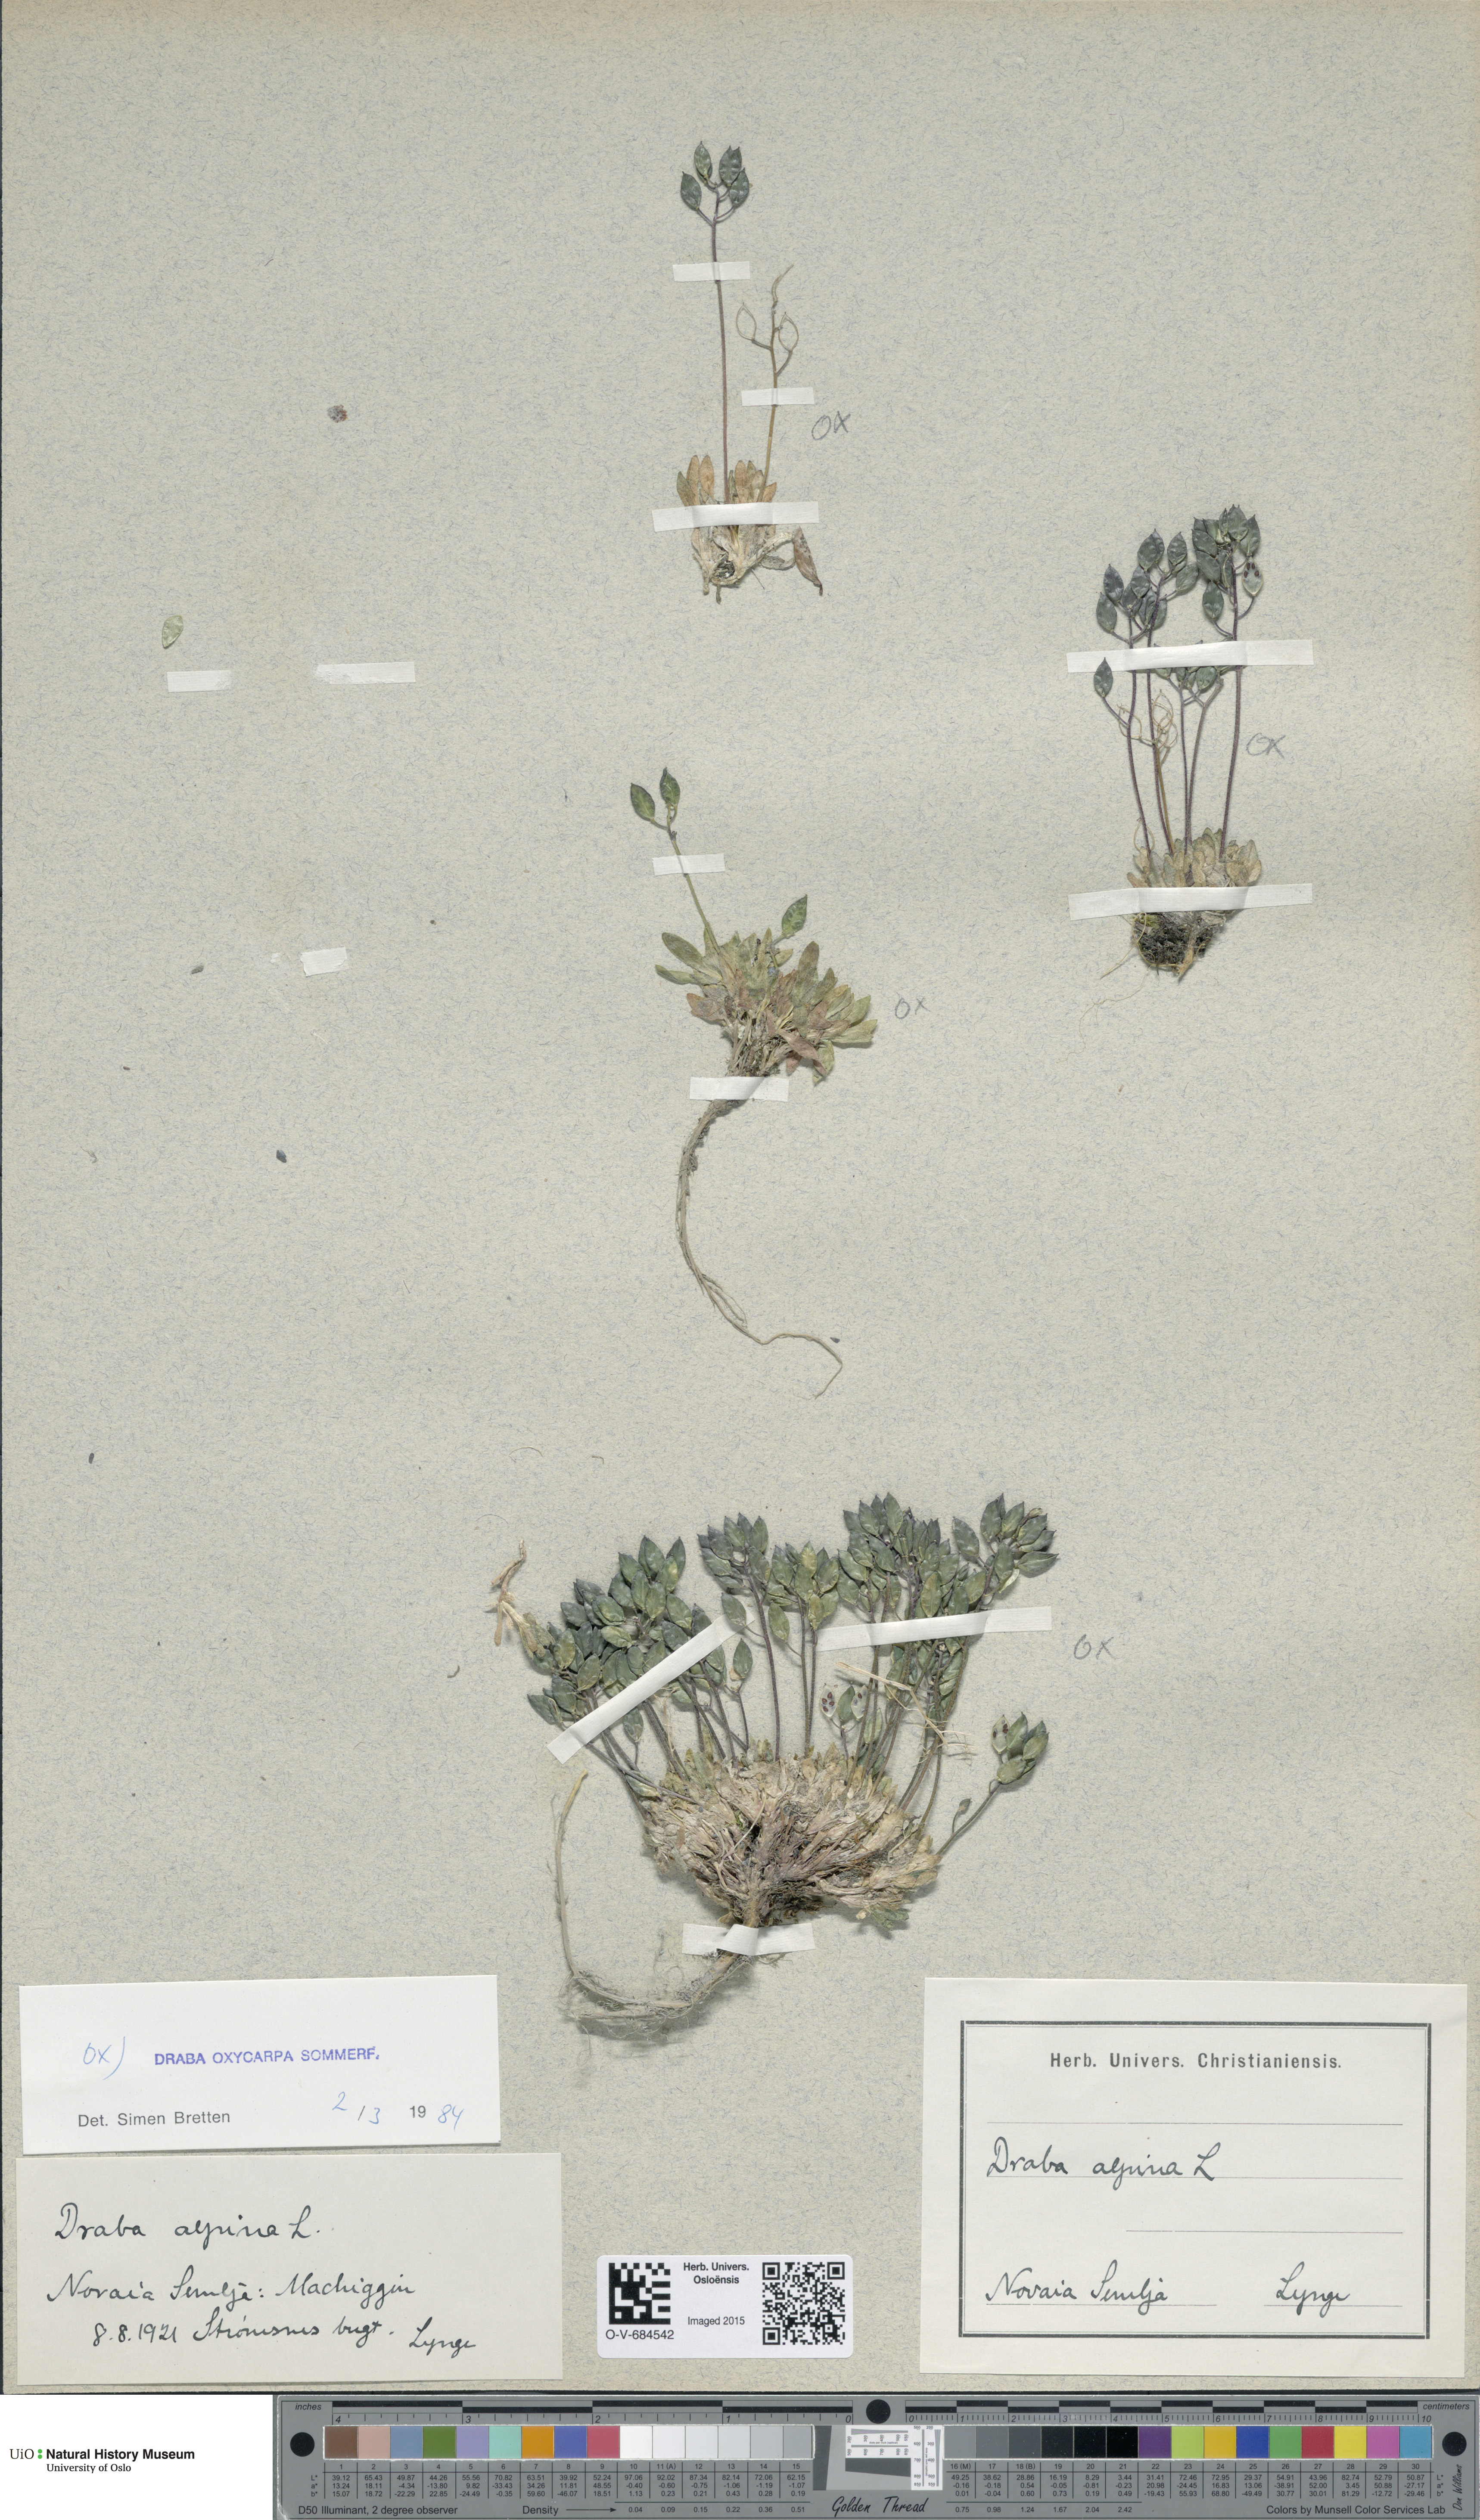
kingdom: Plantae
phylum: Tracheophyta
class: Magnoliopsida
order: Brassicales
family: Brassicaceae
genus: Draba
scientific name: Draba oxycarpa
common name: Sharp-fruited whitlow-grass
